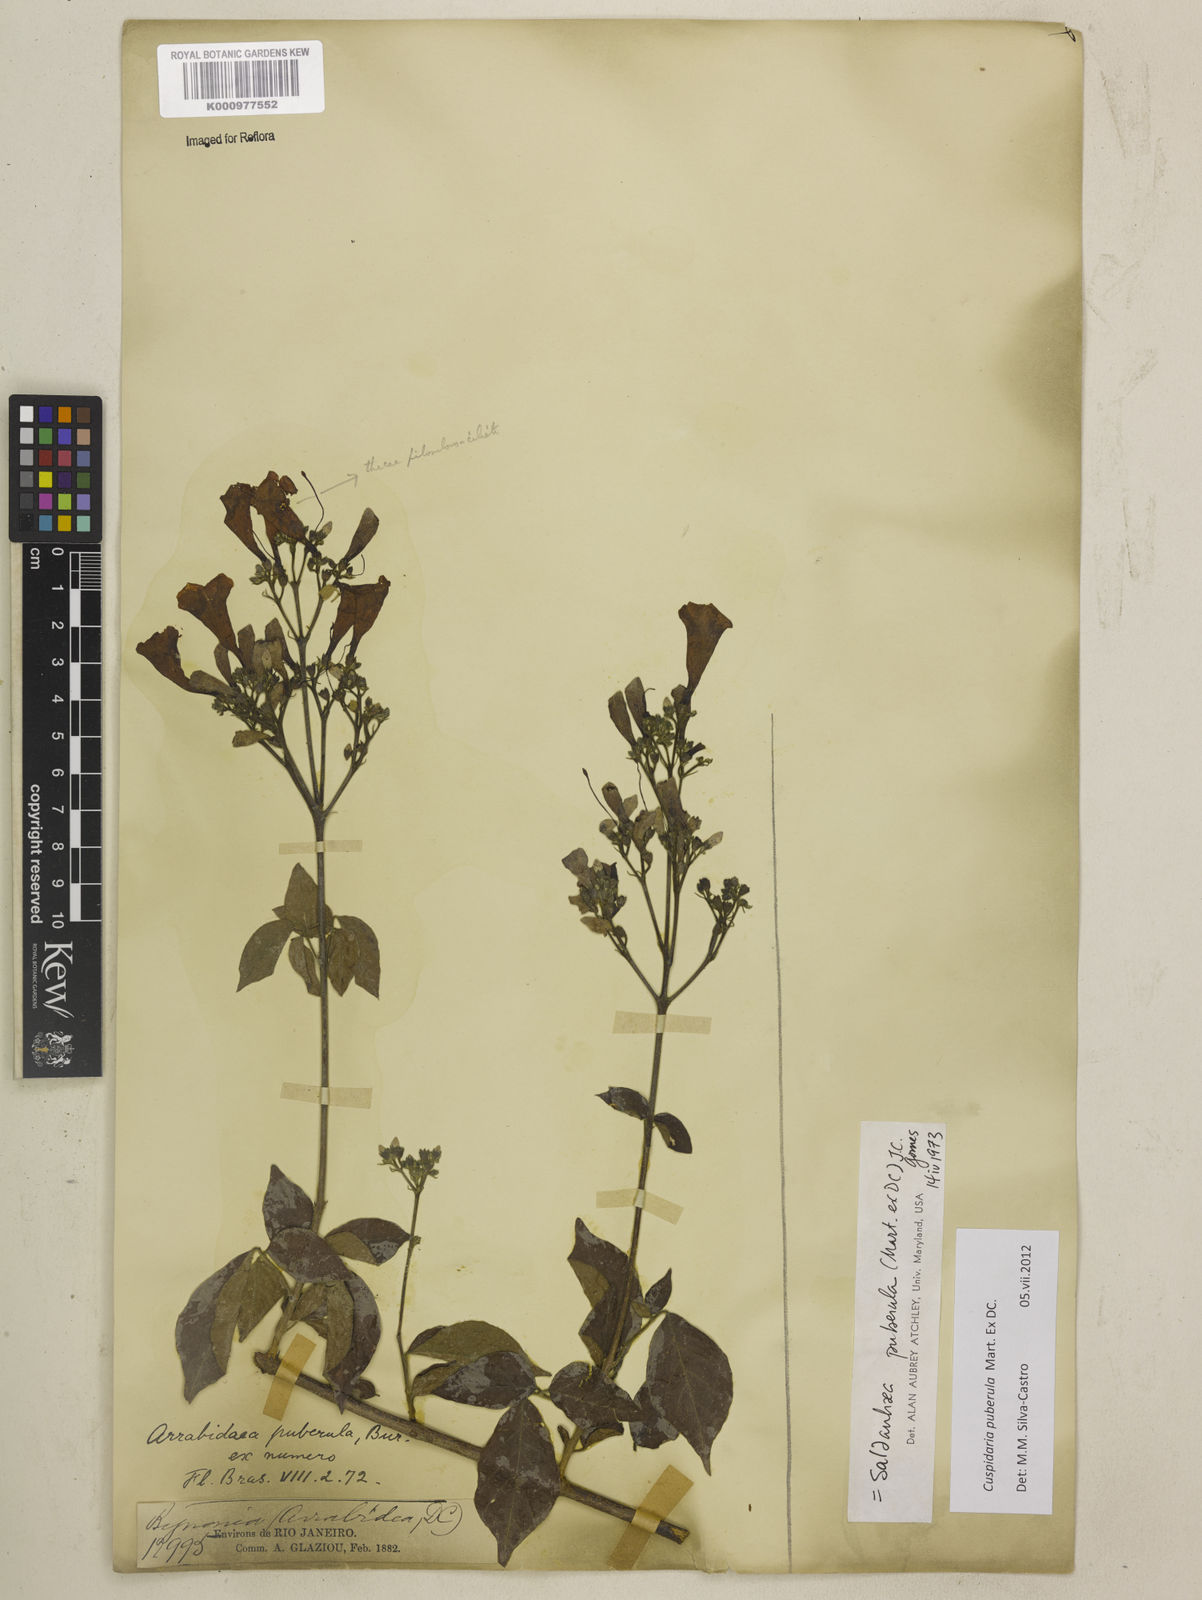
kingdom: Plantae
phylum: Tracheophyta
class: Magnoliopsida
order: Lamiales
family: Bignoniaceae
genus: Cuspidaria
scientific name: Cuspidaria simplicifolia
